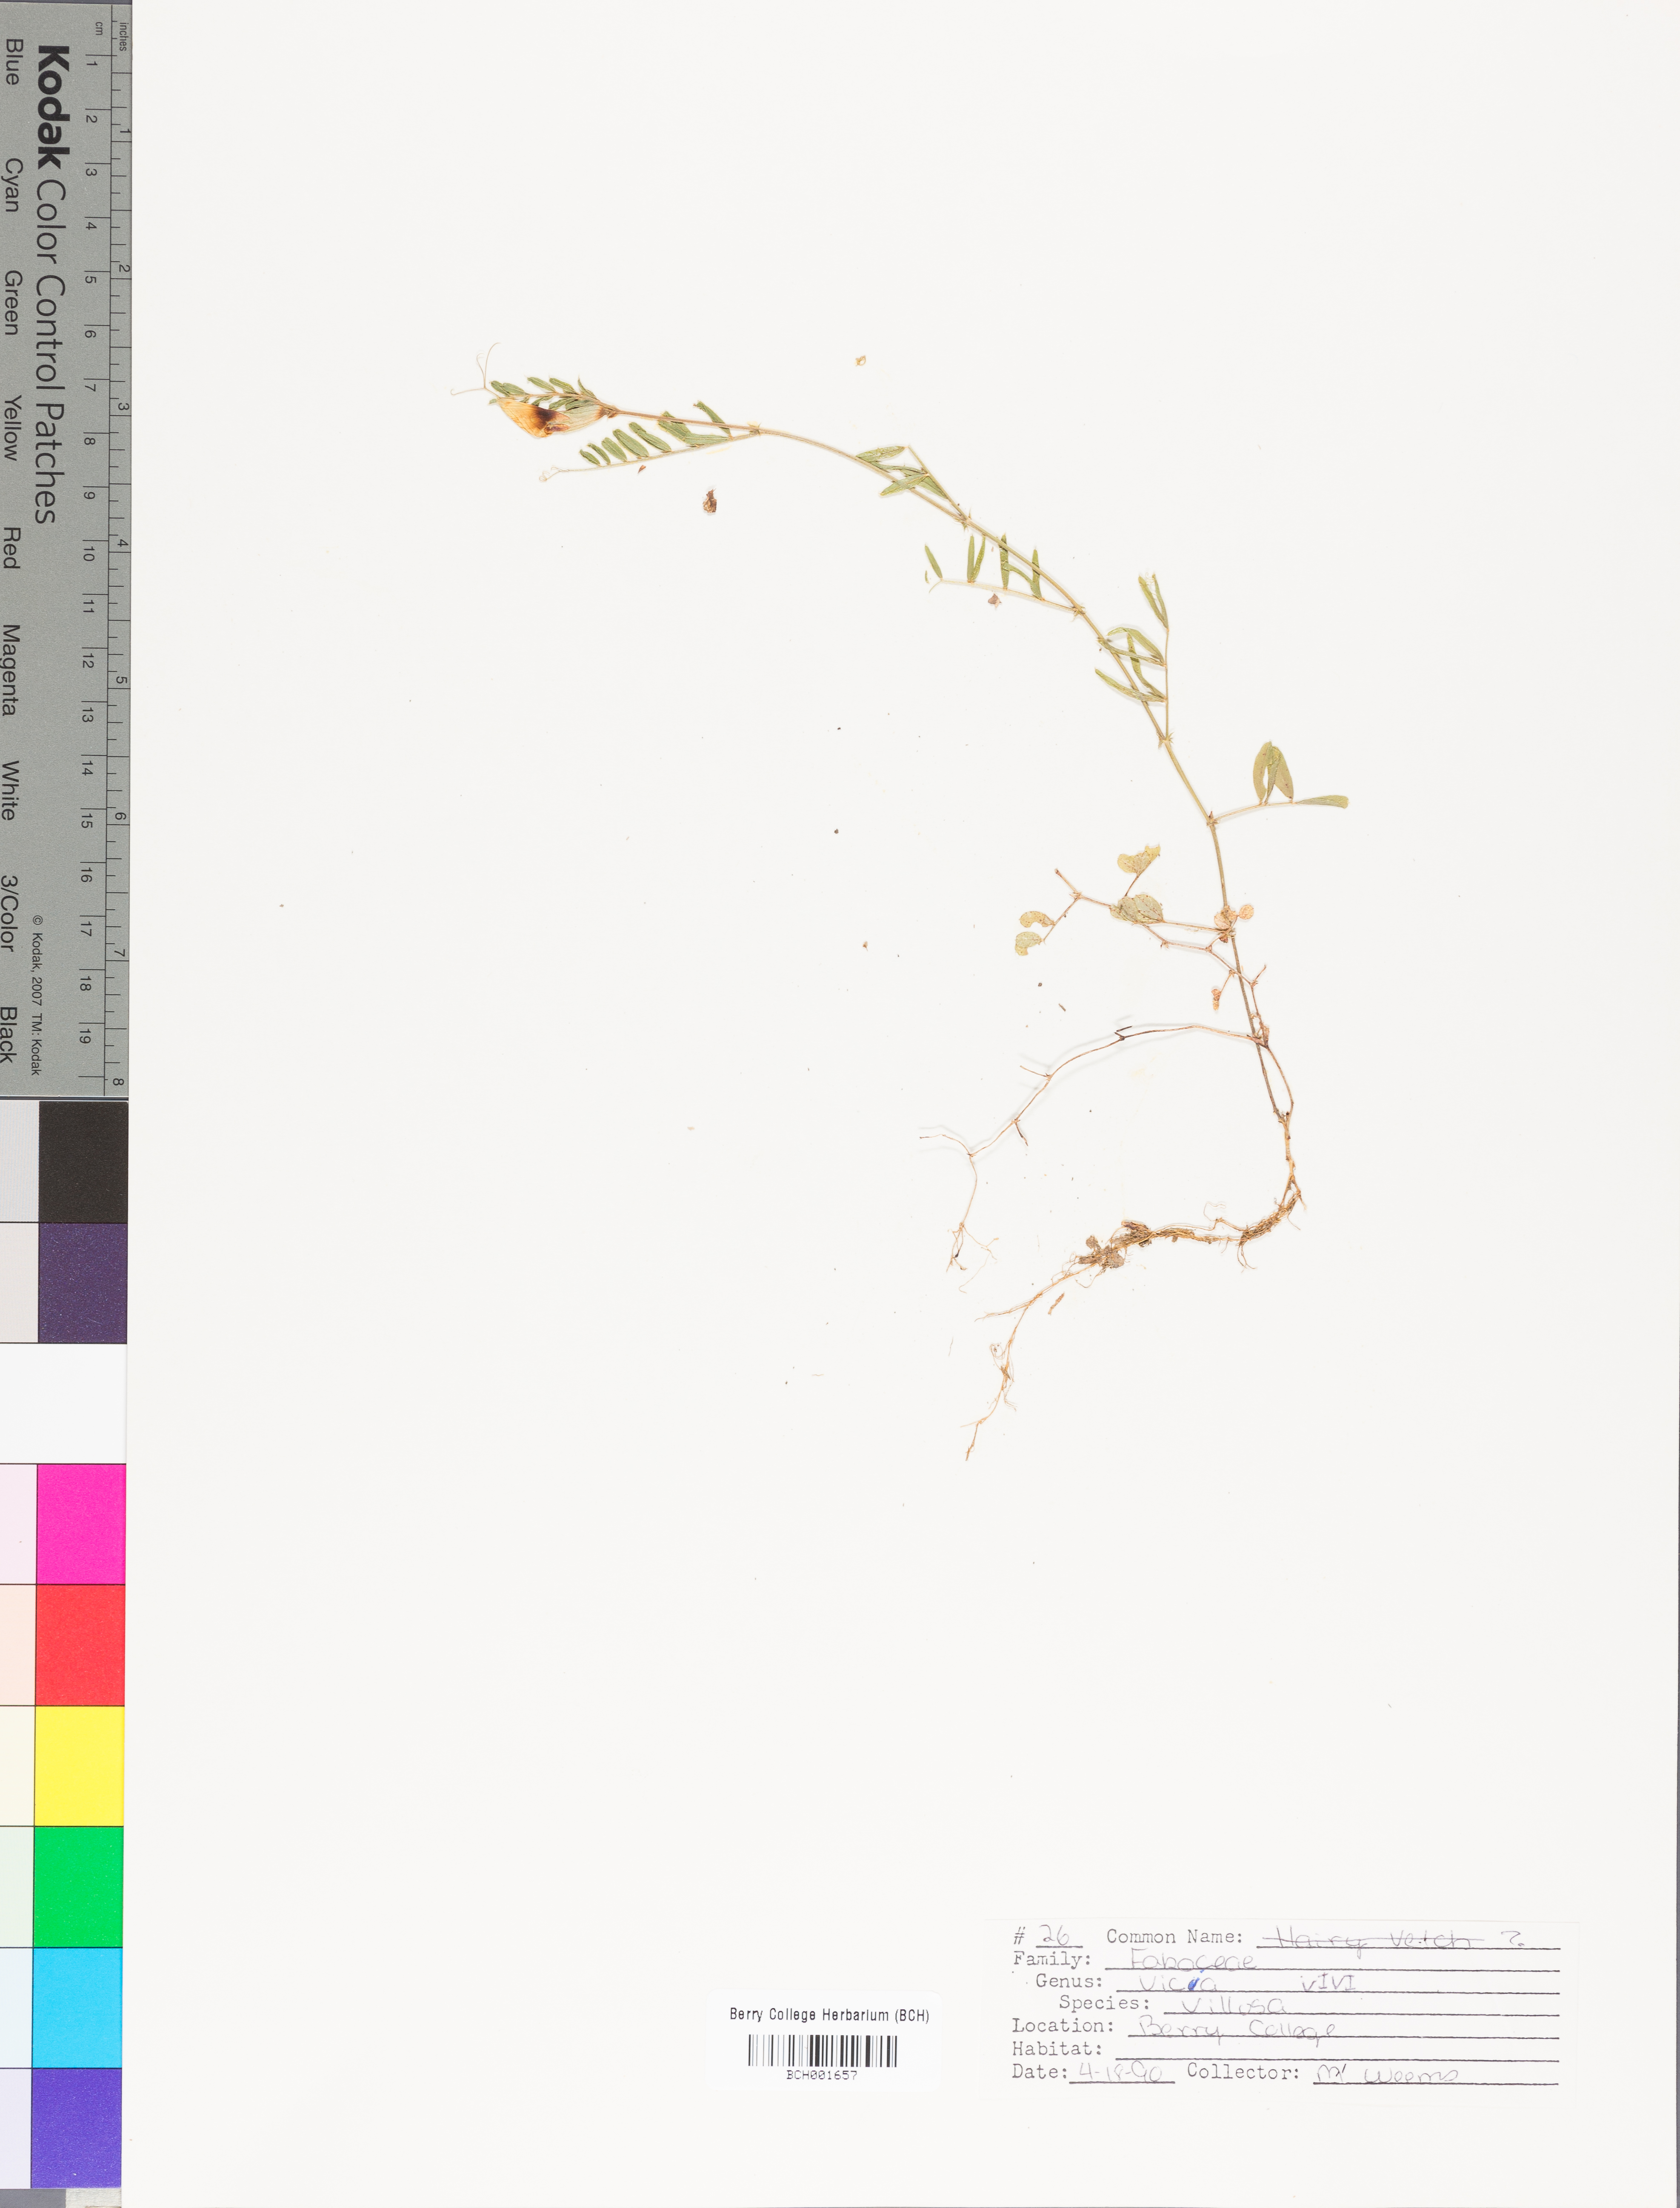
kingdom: Plantae
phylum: Tracheophyta
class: Magnoliopsida
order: Fabales
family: Fabaceae
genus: Vicia
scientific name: Vicia villosa
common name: Fodder vetch
